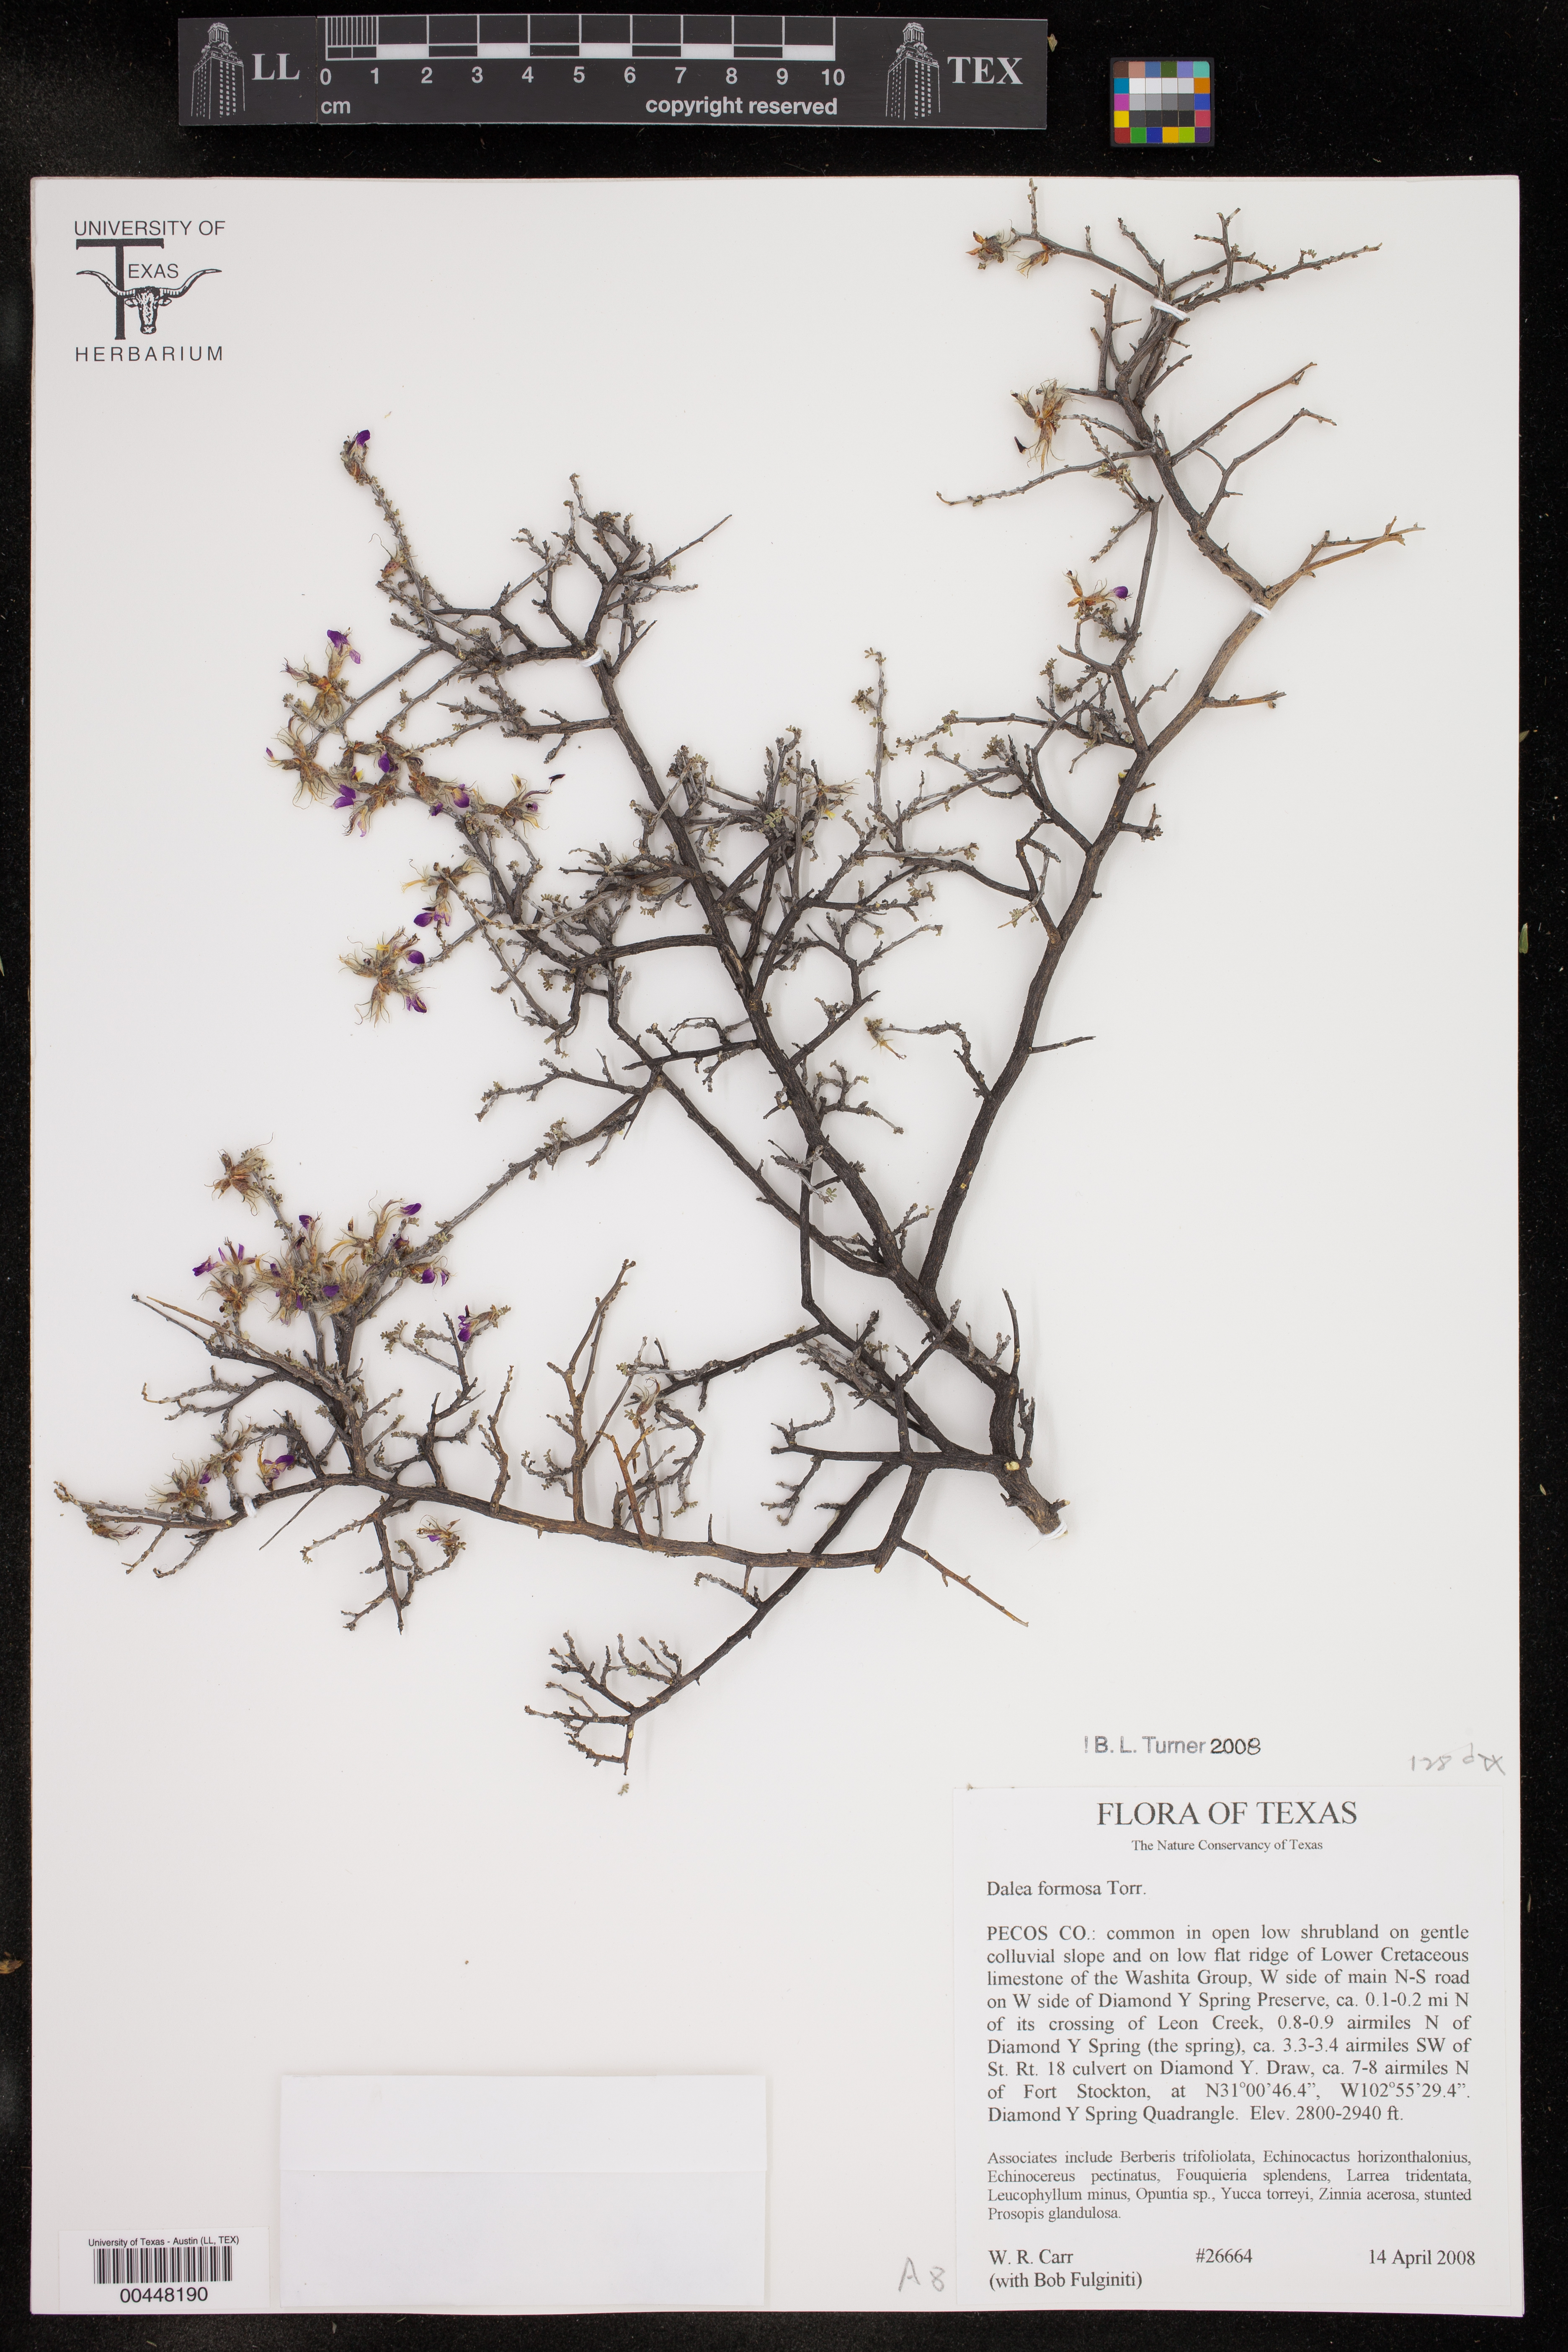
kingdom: Plantae
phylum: Tracheophyta
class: Magnoliopsida
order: Fabales
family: Fabaceae
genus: Dalea
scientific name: Dalea formosa
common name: Feather-plume dalea
